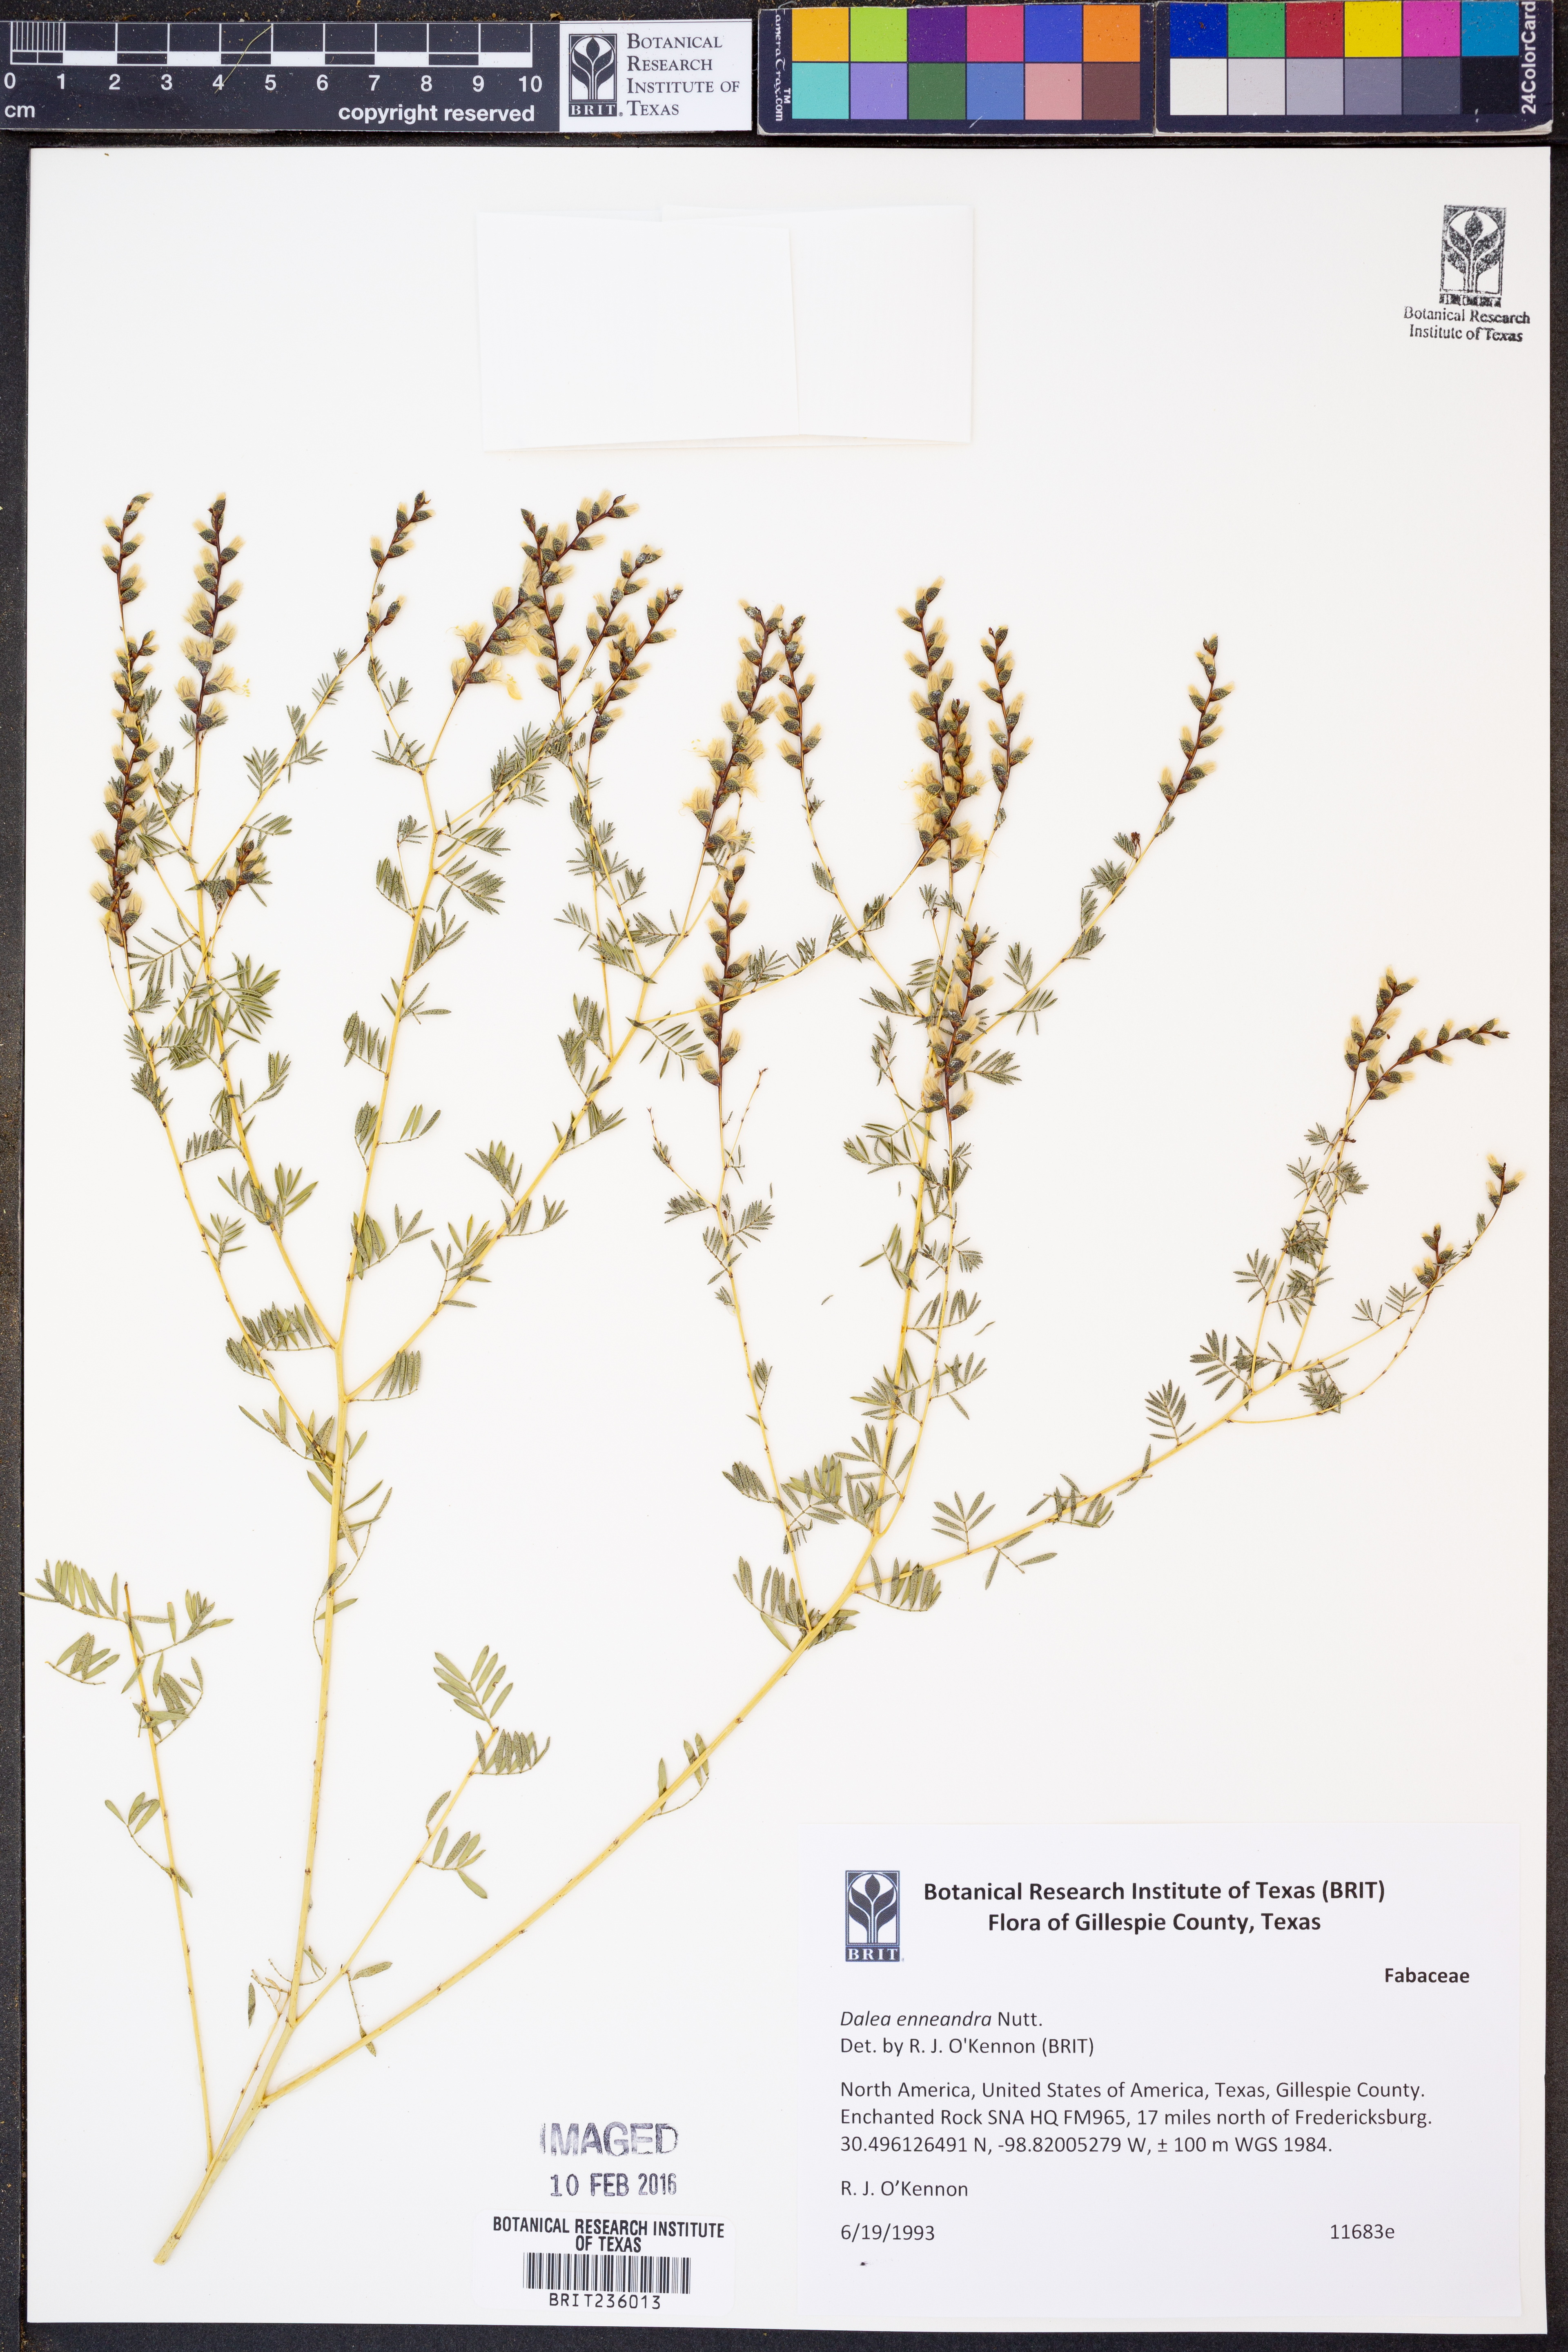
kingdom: Plantae
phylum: Tracheophyta
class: Magnoliopsida
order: Fabales
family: Fabaceae
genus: Dalea
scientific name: Dalea enneandra
